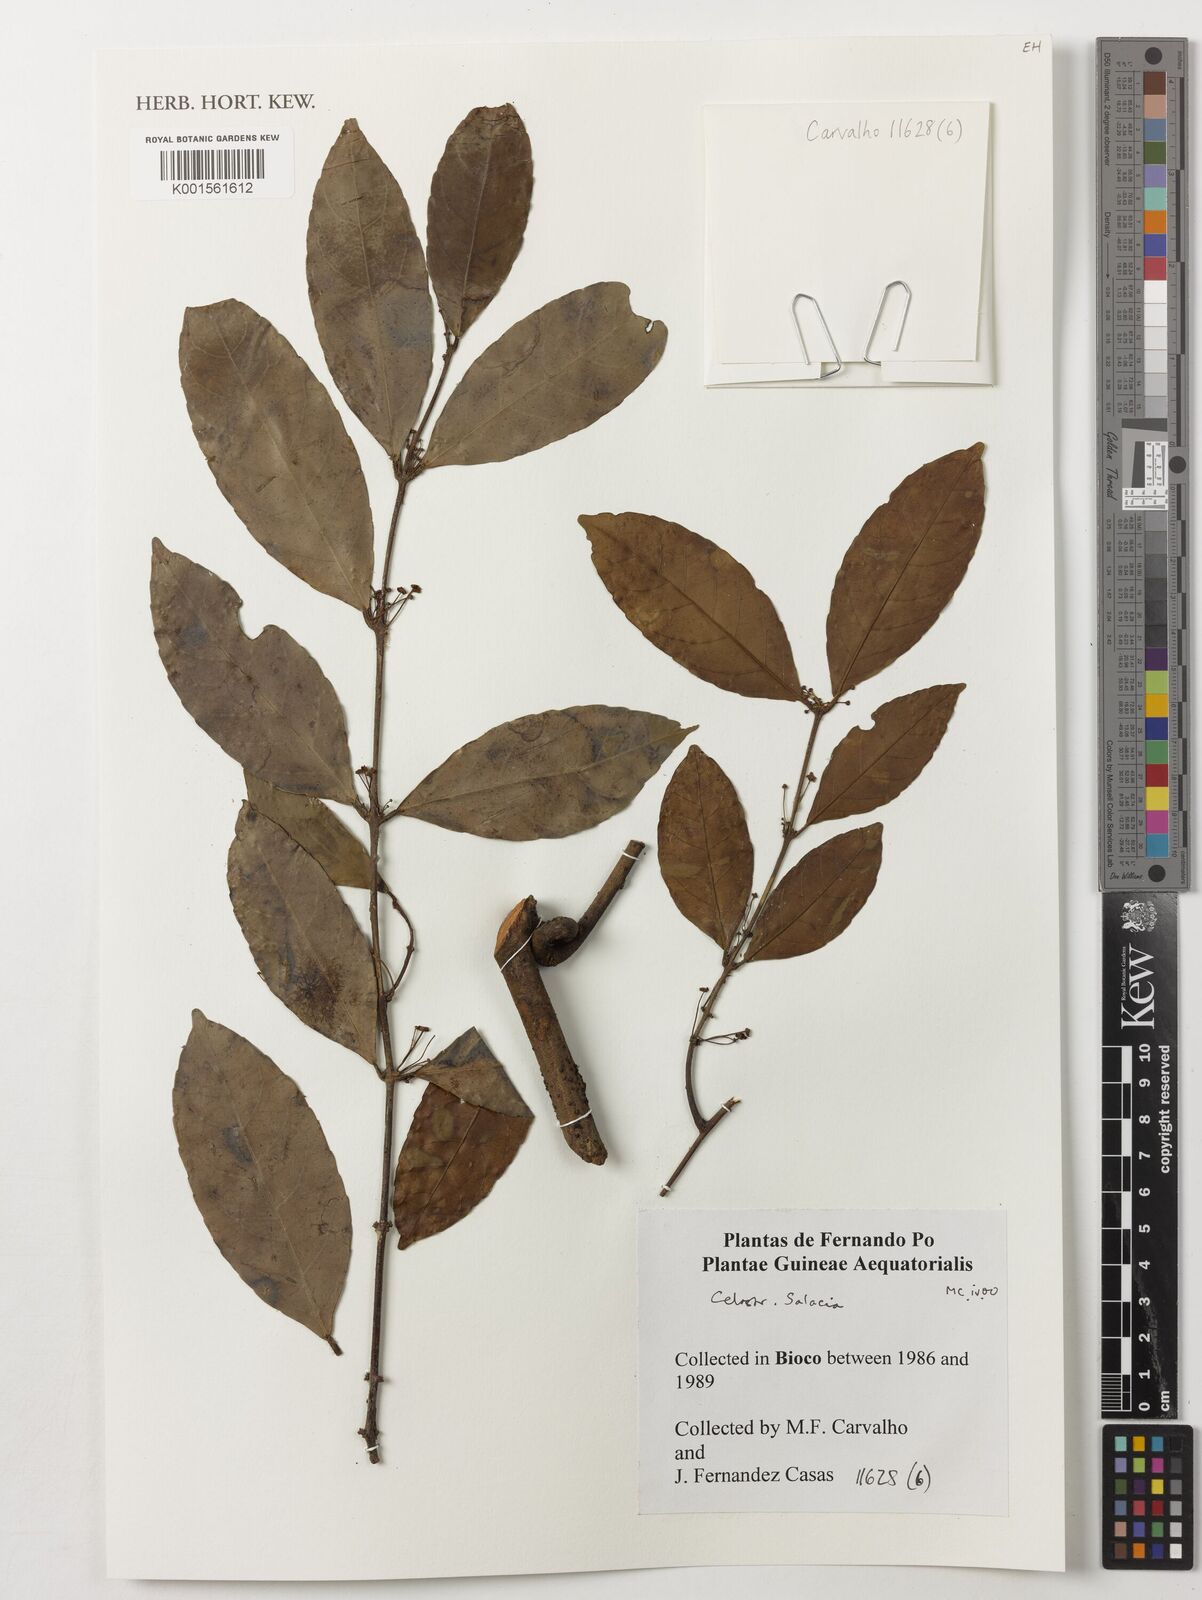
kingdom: Plantae
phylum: Tracheophyta
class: Magnoliopsida
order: Celastrales
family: Celastraceae
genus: Salacia
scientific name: Salacia
